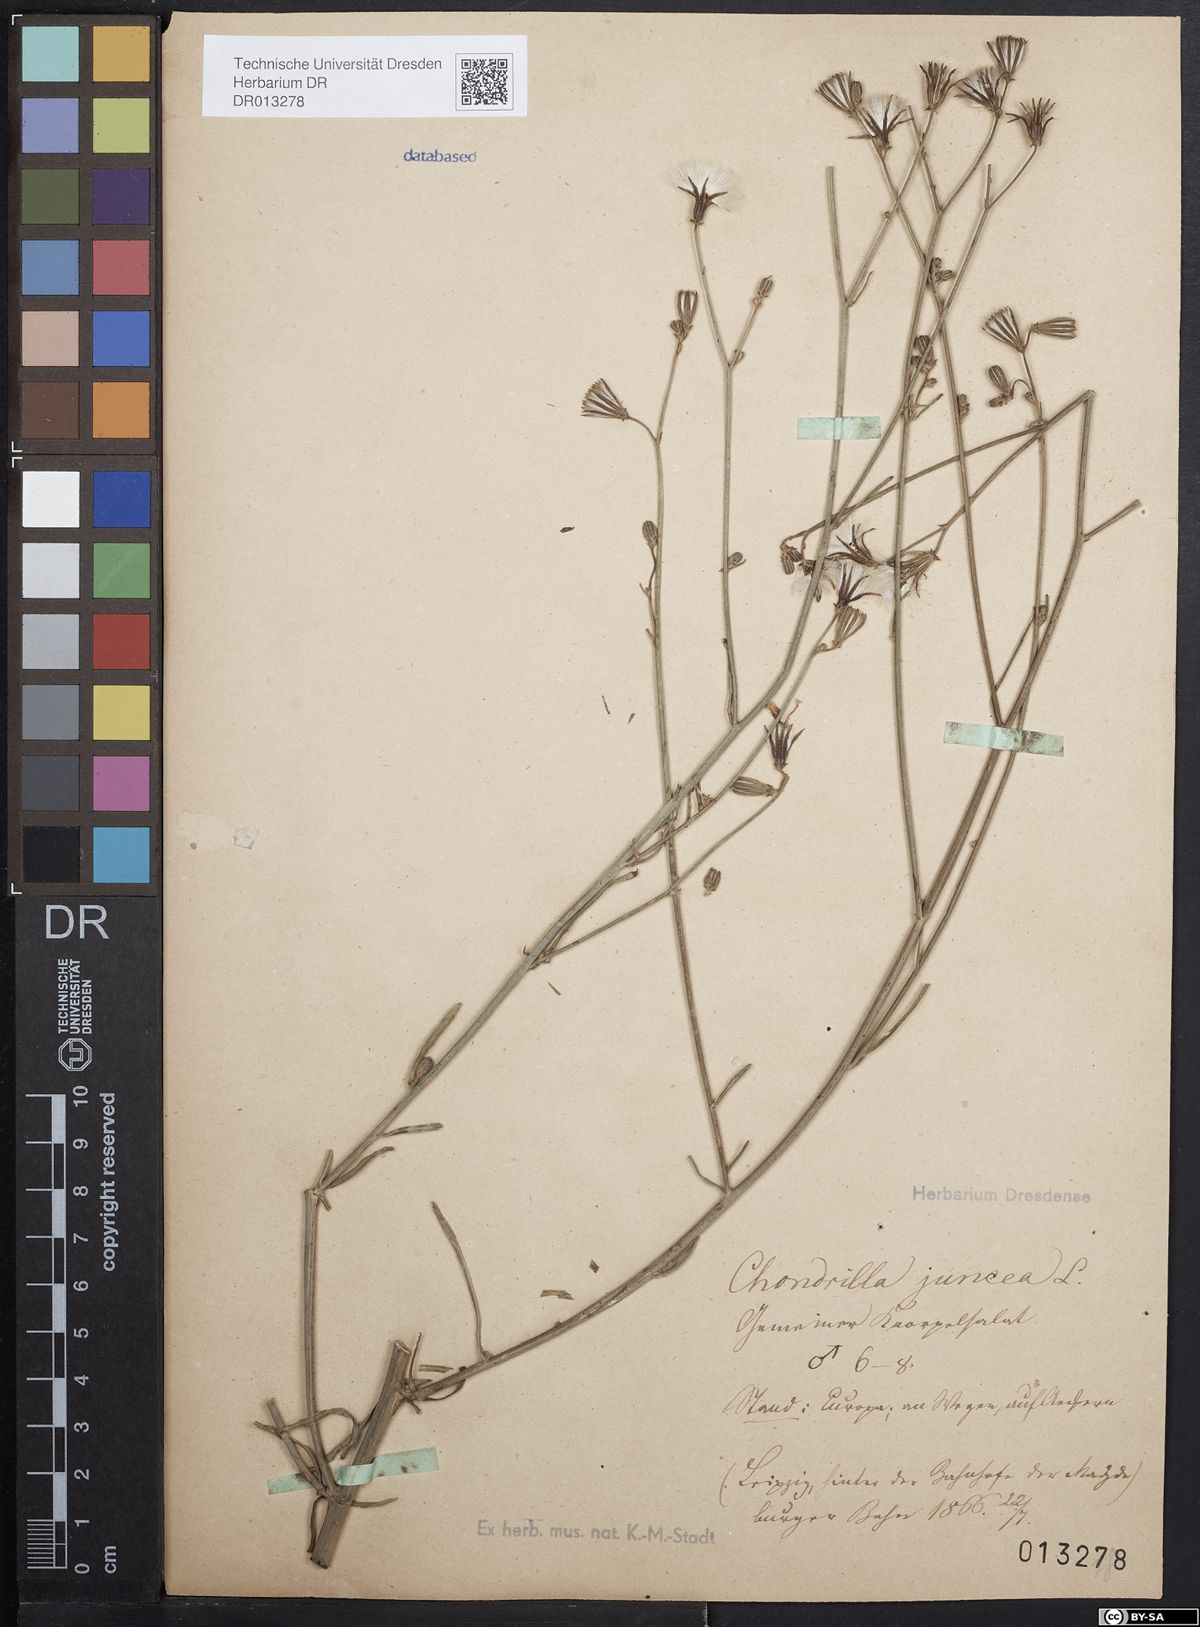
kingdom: Plantae
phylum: Tracheophyta
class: Magnoliopsida
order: Asterales
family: Asteraceae
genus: Chondrilla
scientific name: Chondrilla juncea
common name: Skeleton weed
